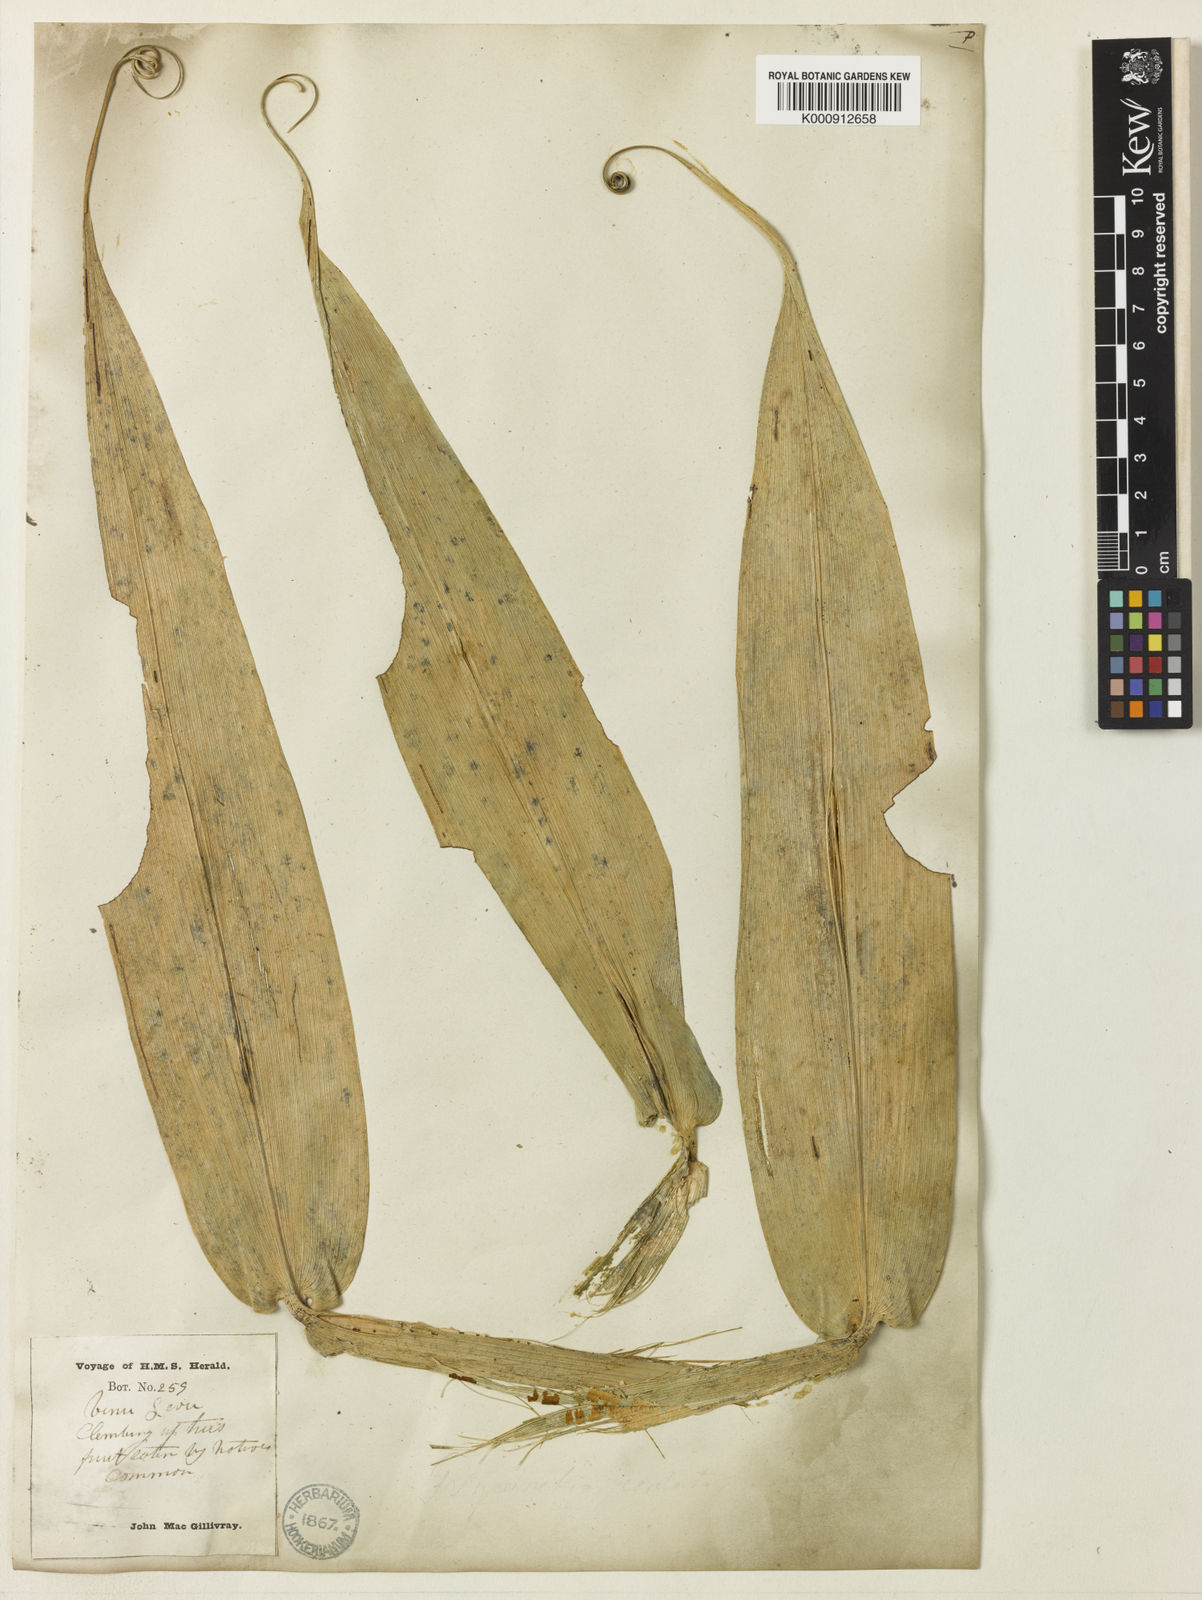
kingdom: Plantae
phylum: Tracheophyta
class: Liliopsida
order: Poales
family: Flagellariaceae
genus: Flagellaria
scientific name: Flagellaria gigantea
